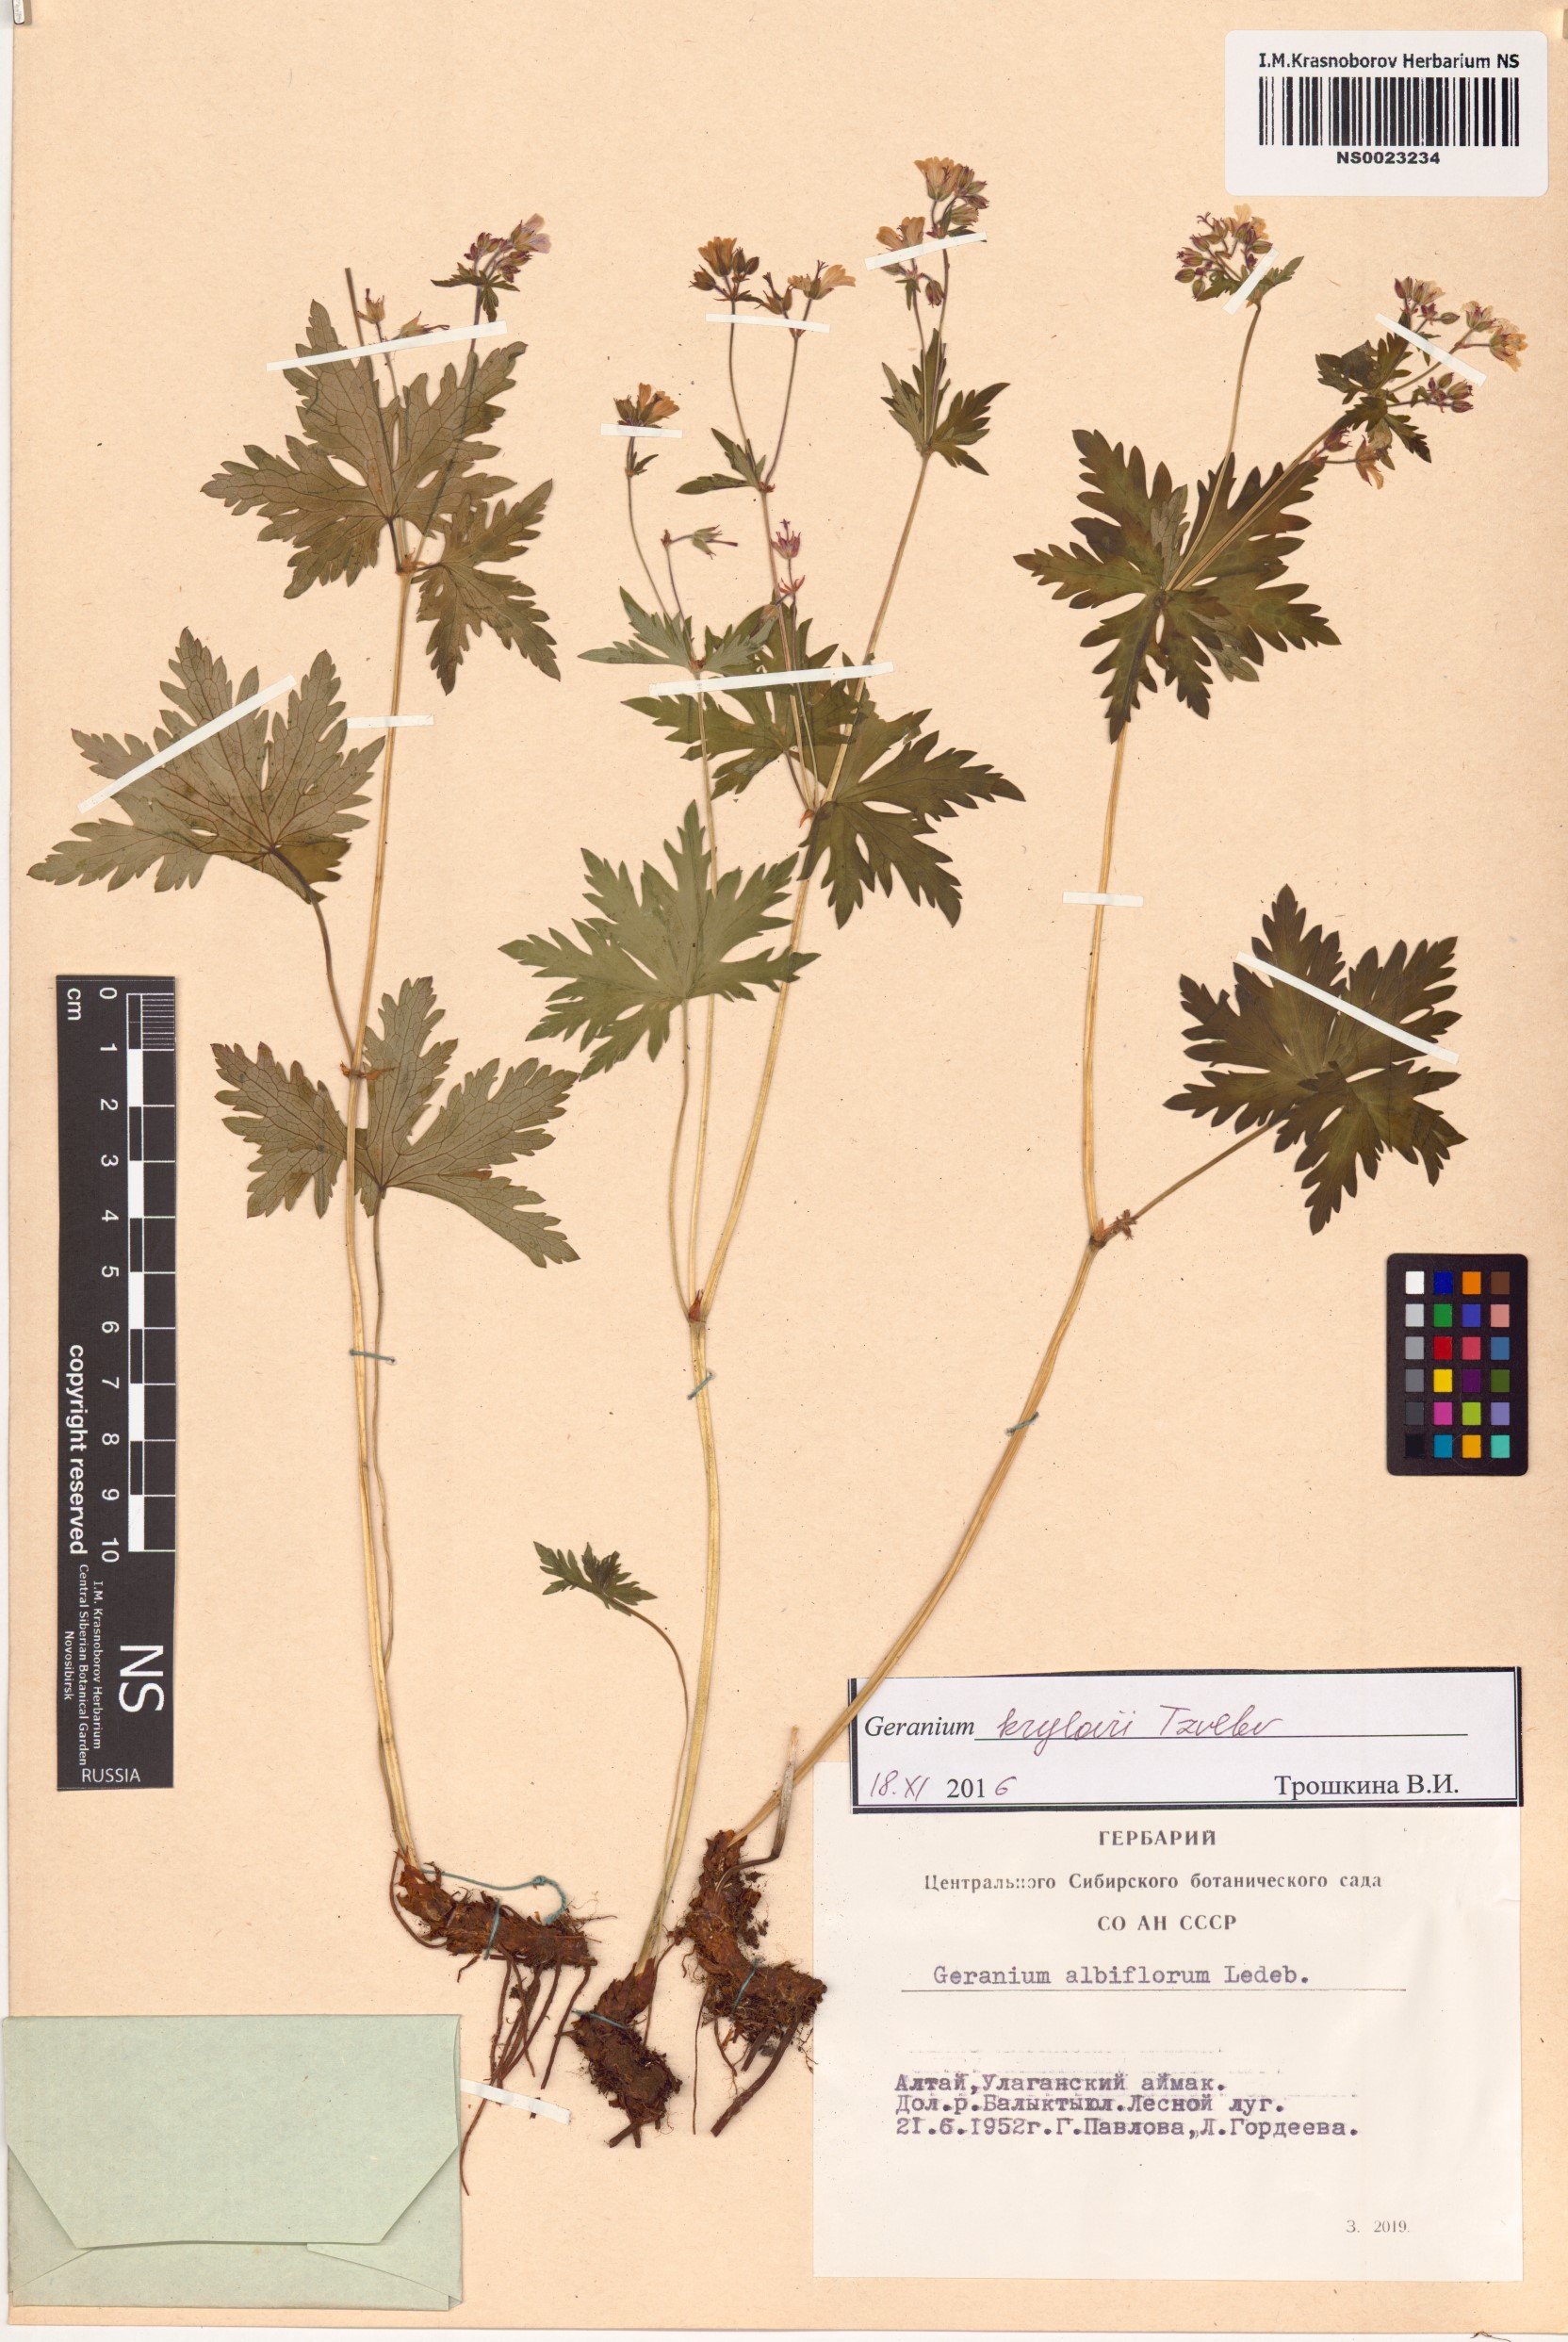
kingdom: Plantae
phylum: Tracheophyta
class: Magnoliopsida
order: Geraniales
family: Geraniaceae
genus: Geranium
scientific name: Geranium sylvaticum
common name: Wood crane's-bill
